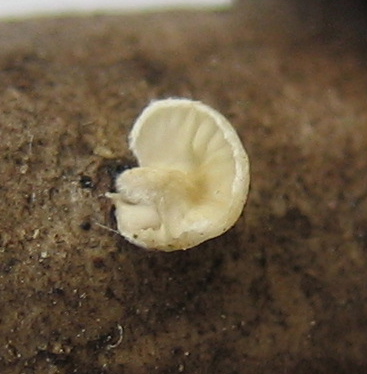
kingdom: Fungi
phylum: Basidiomycota
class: Agaricomycetes
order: Agaricales
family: Entolomataceae
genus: Clitopilus
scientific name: Clitopilus hobsonii
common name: Miller's oysterling
